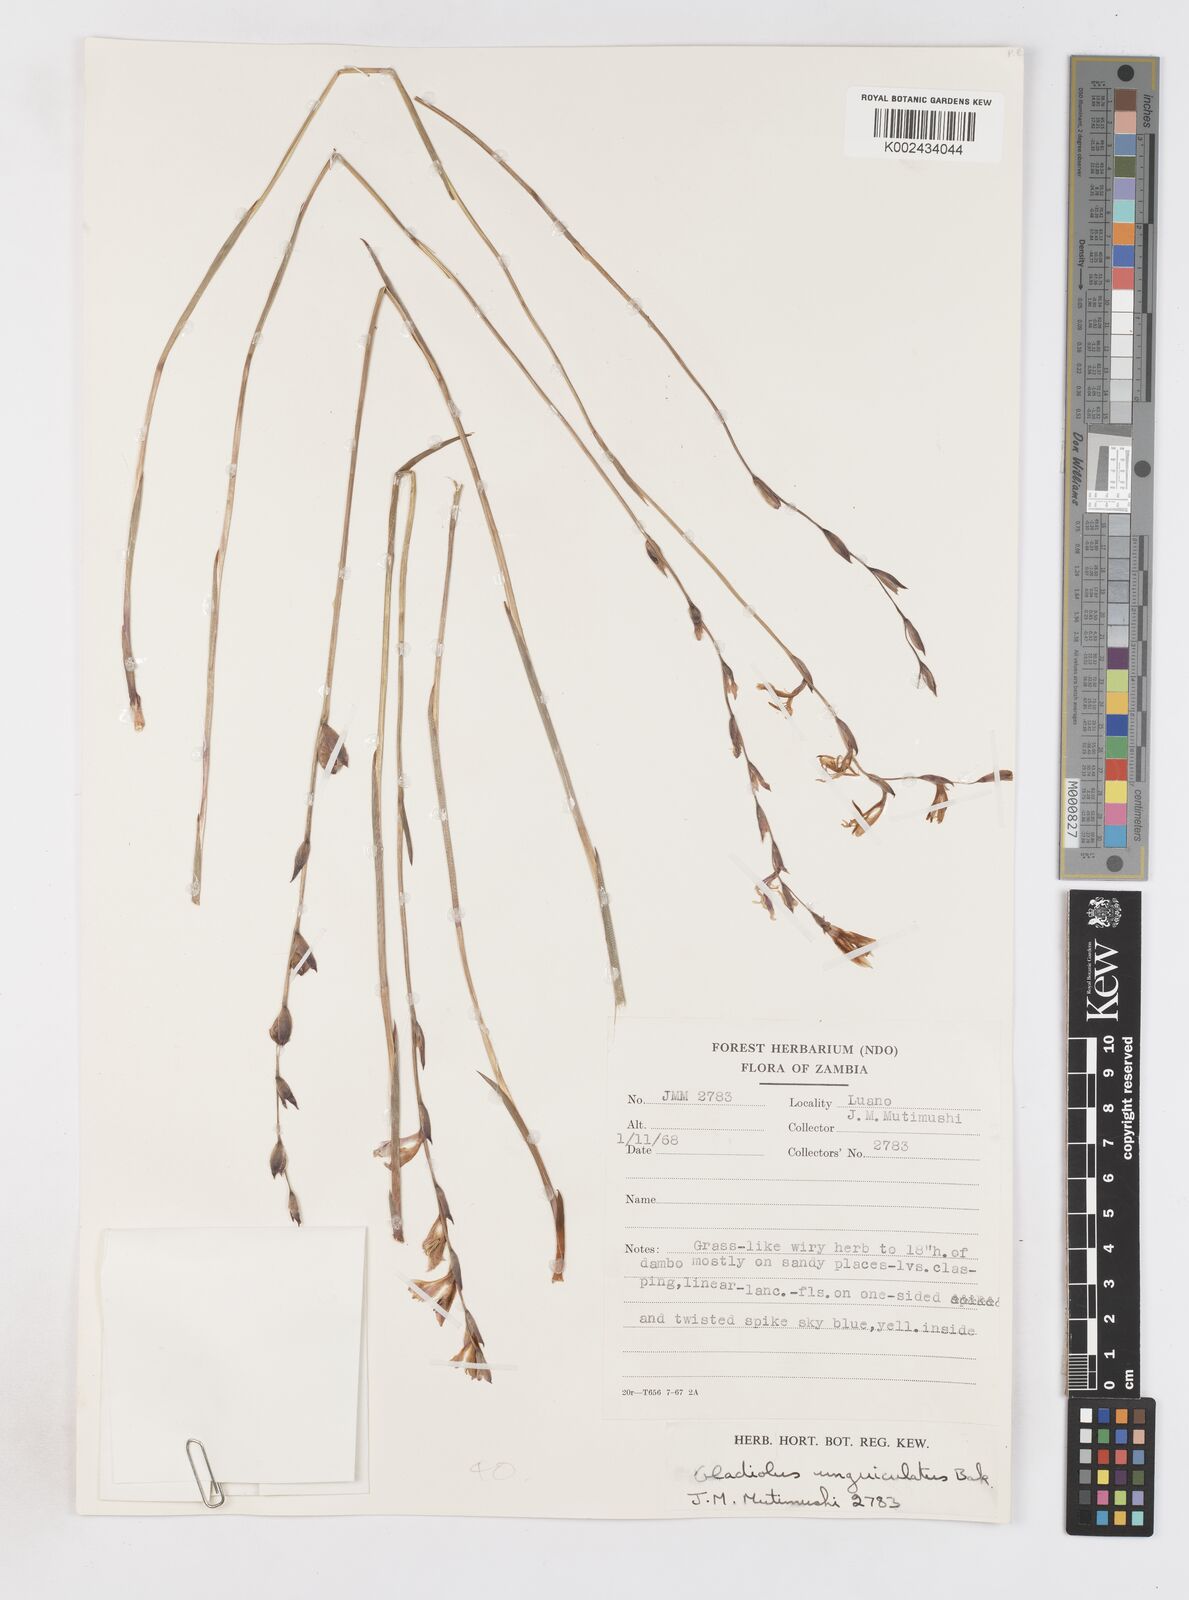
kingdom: Plantae
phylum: Tracheophyta
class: Liliopsida
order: Asparagales
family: Iridaceae
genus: Gladiolus
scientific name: Gladiolus atropurpureus
